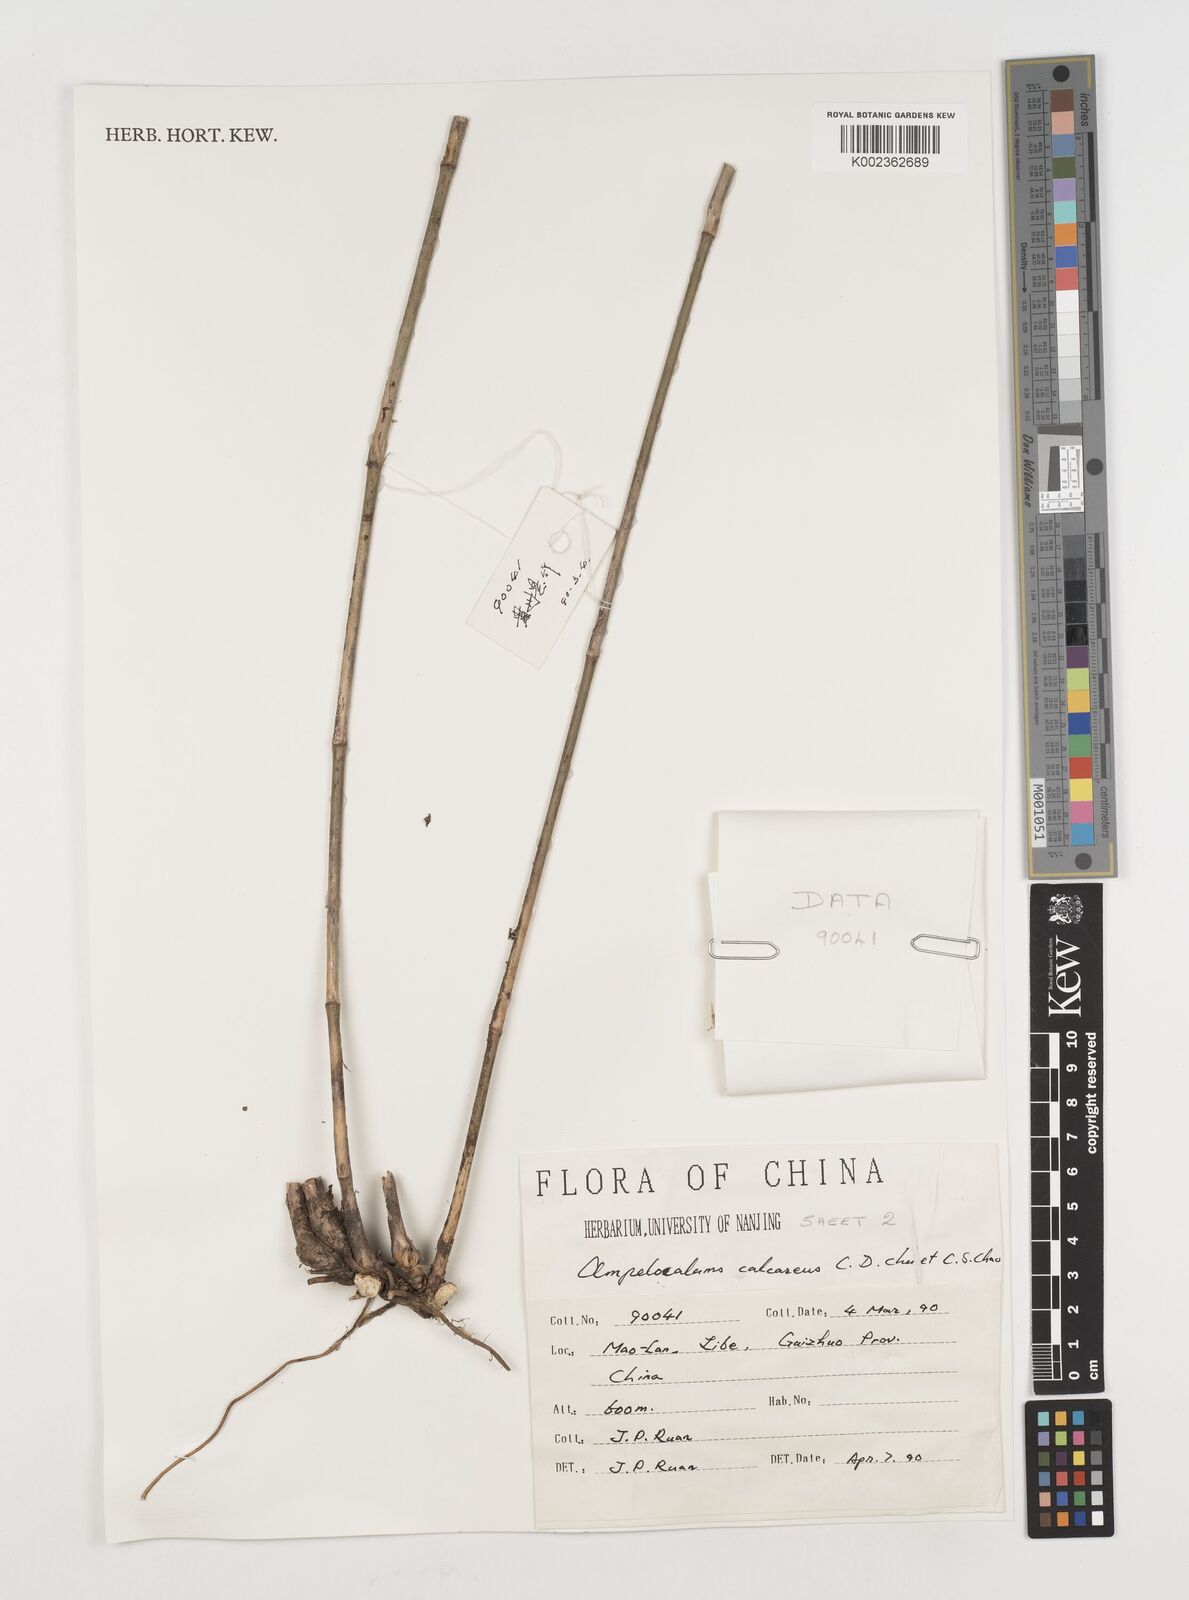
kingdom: Plantae
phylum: Tracheophyta
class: Liliopsida
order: Poales
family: Poaceae
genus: Acidosasa
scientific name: Acidosasa
